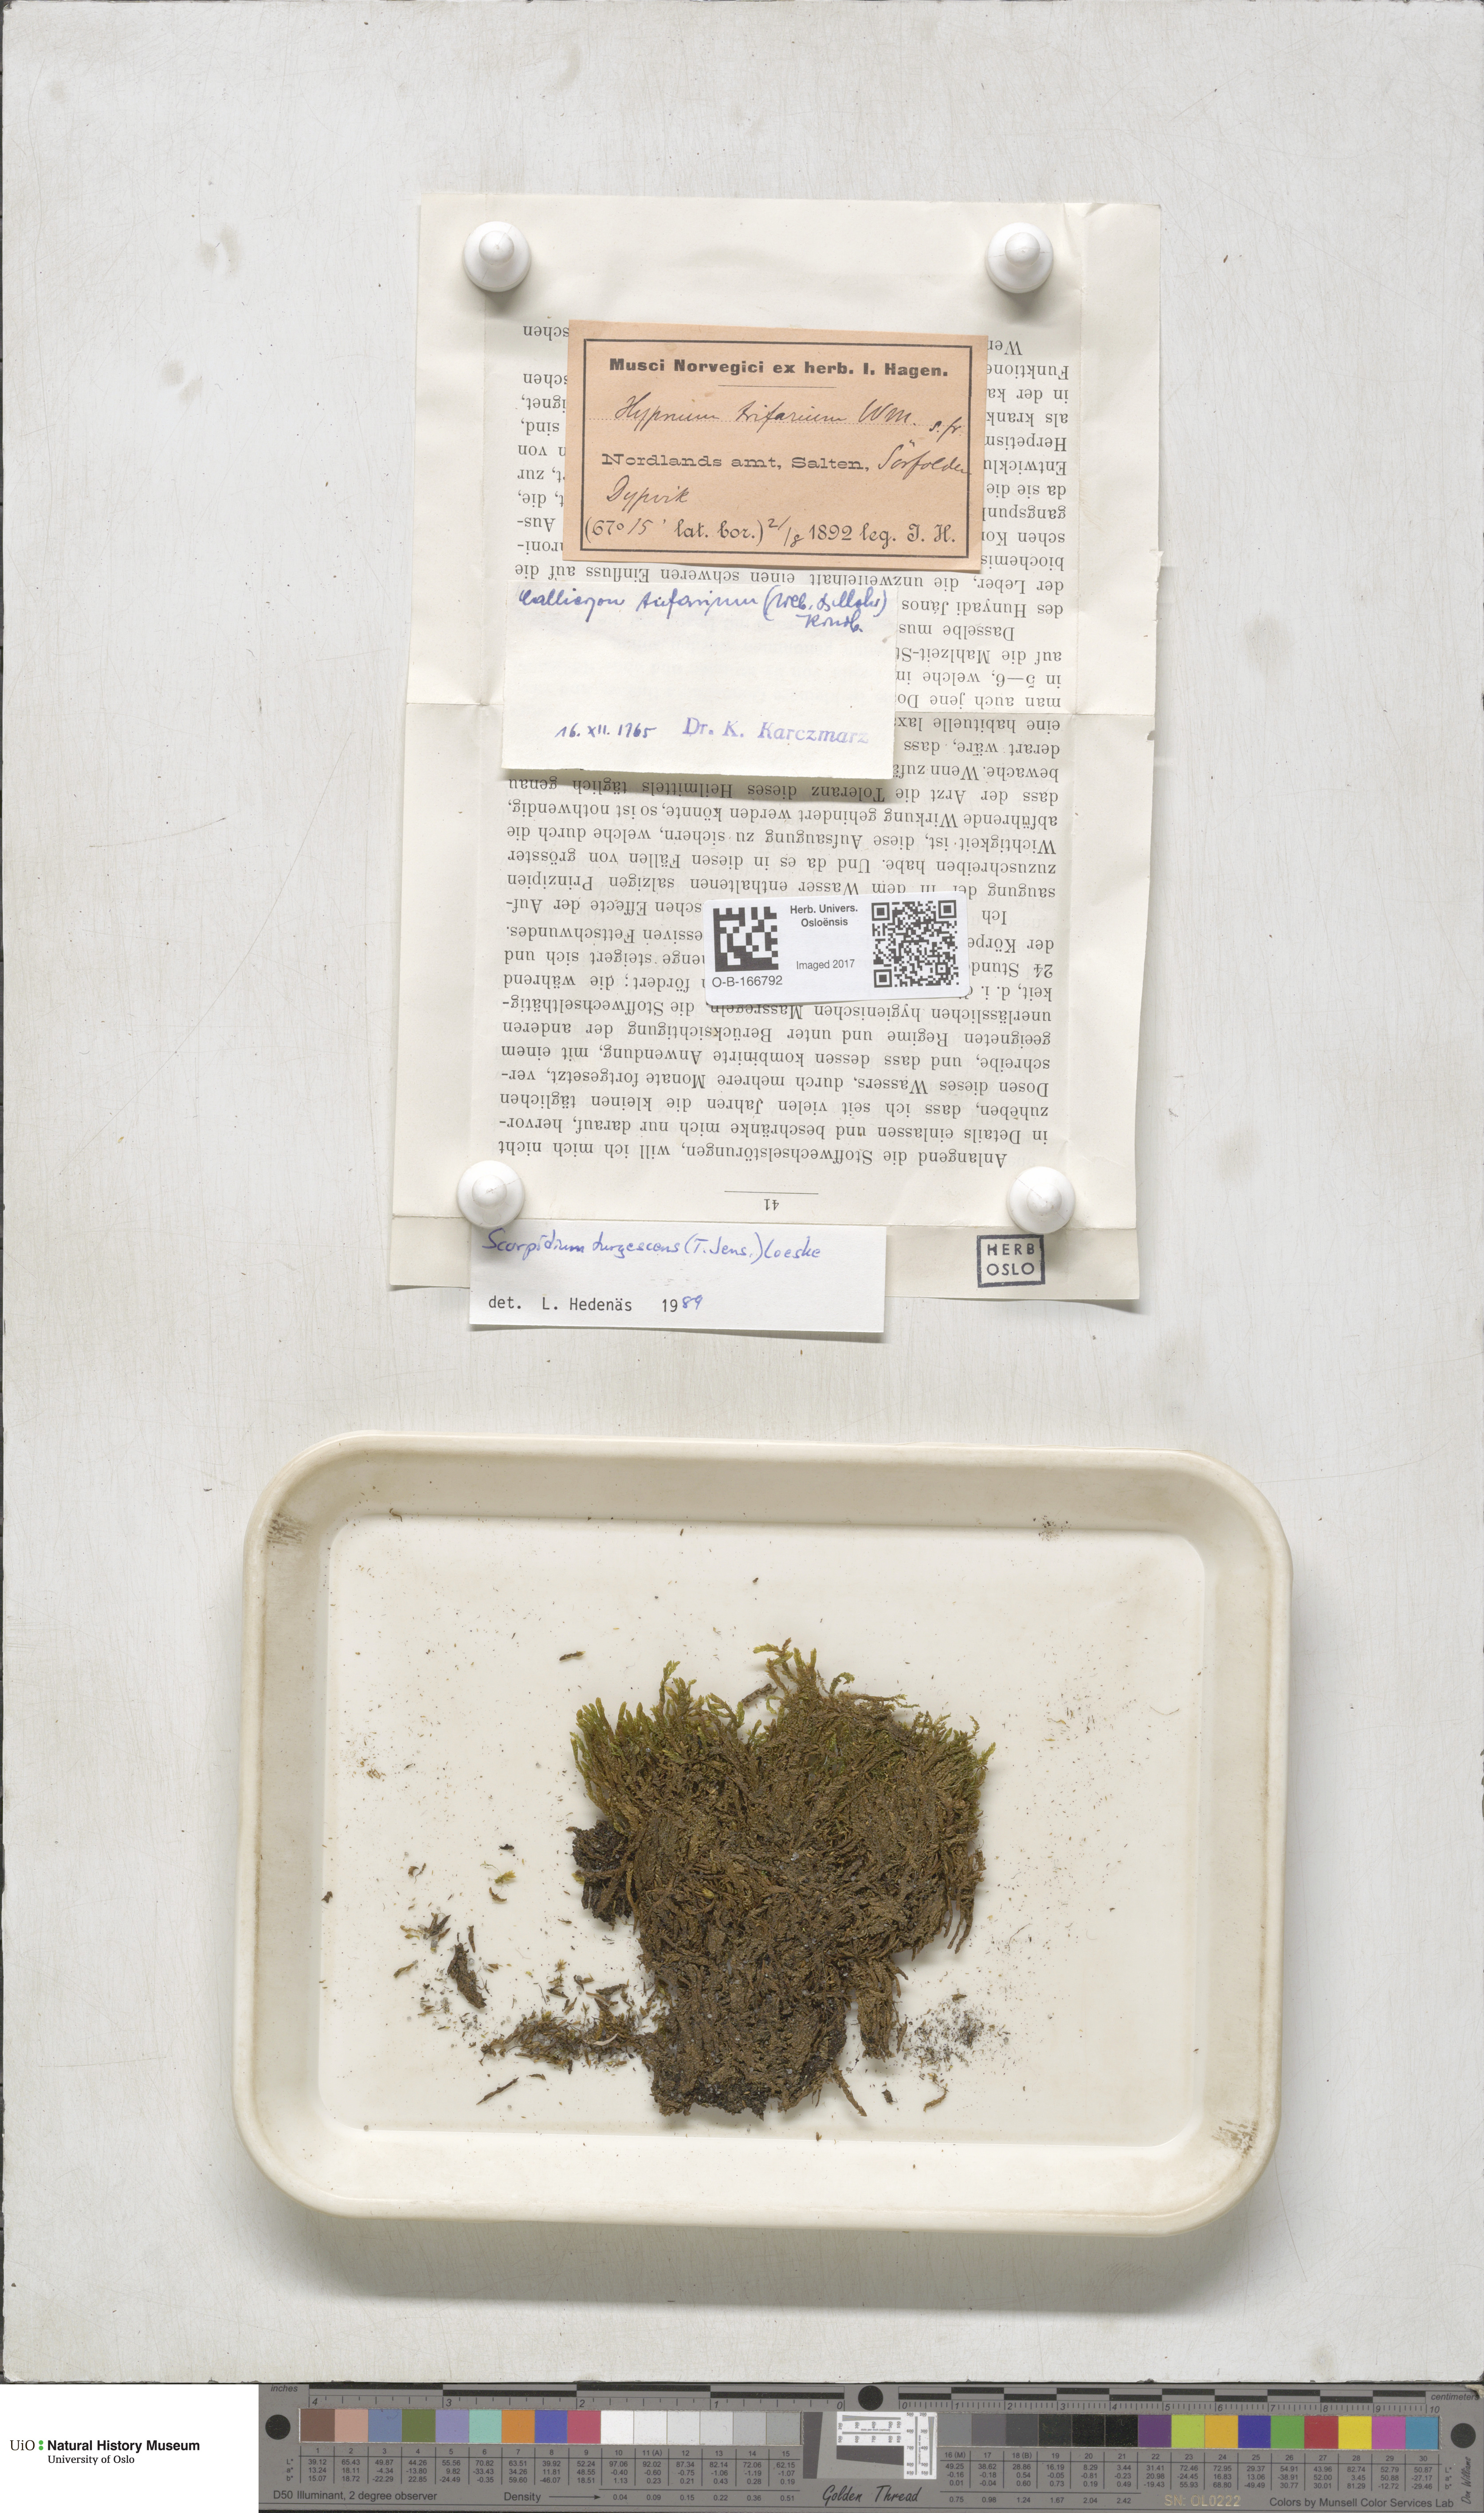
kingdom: Plantae
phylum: Bryophyta
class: Bryopsida
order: Hypnales
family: Amblystegiaceae
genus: Drepanocladus
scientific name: Drepanocladus turgescens
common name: Large yellow feather-moss
